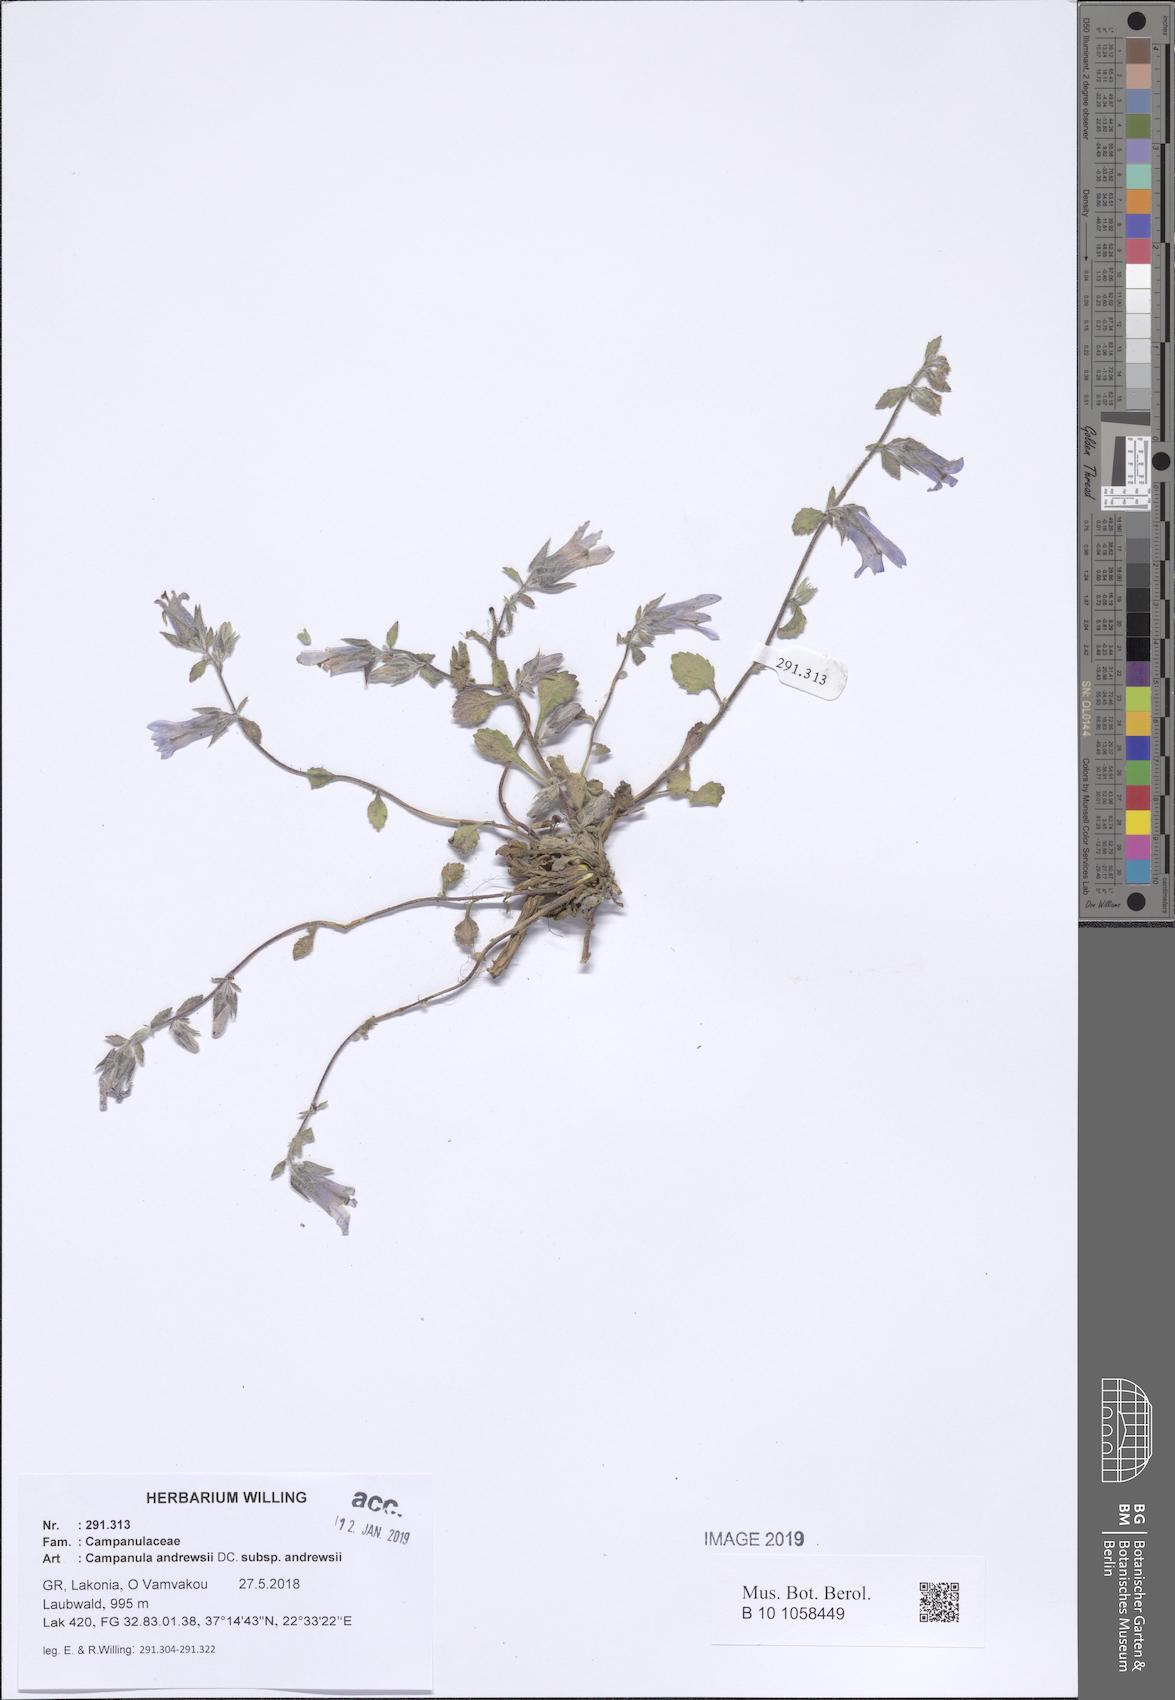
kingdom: Plantae
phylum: Tracheophyta
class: Magnoliopsida
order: Asterales
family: Campanulaceae
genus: Campanula
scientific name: Campanula andrewsii
